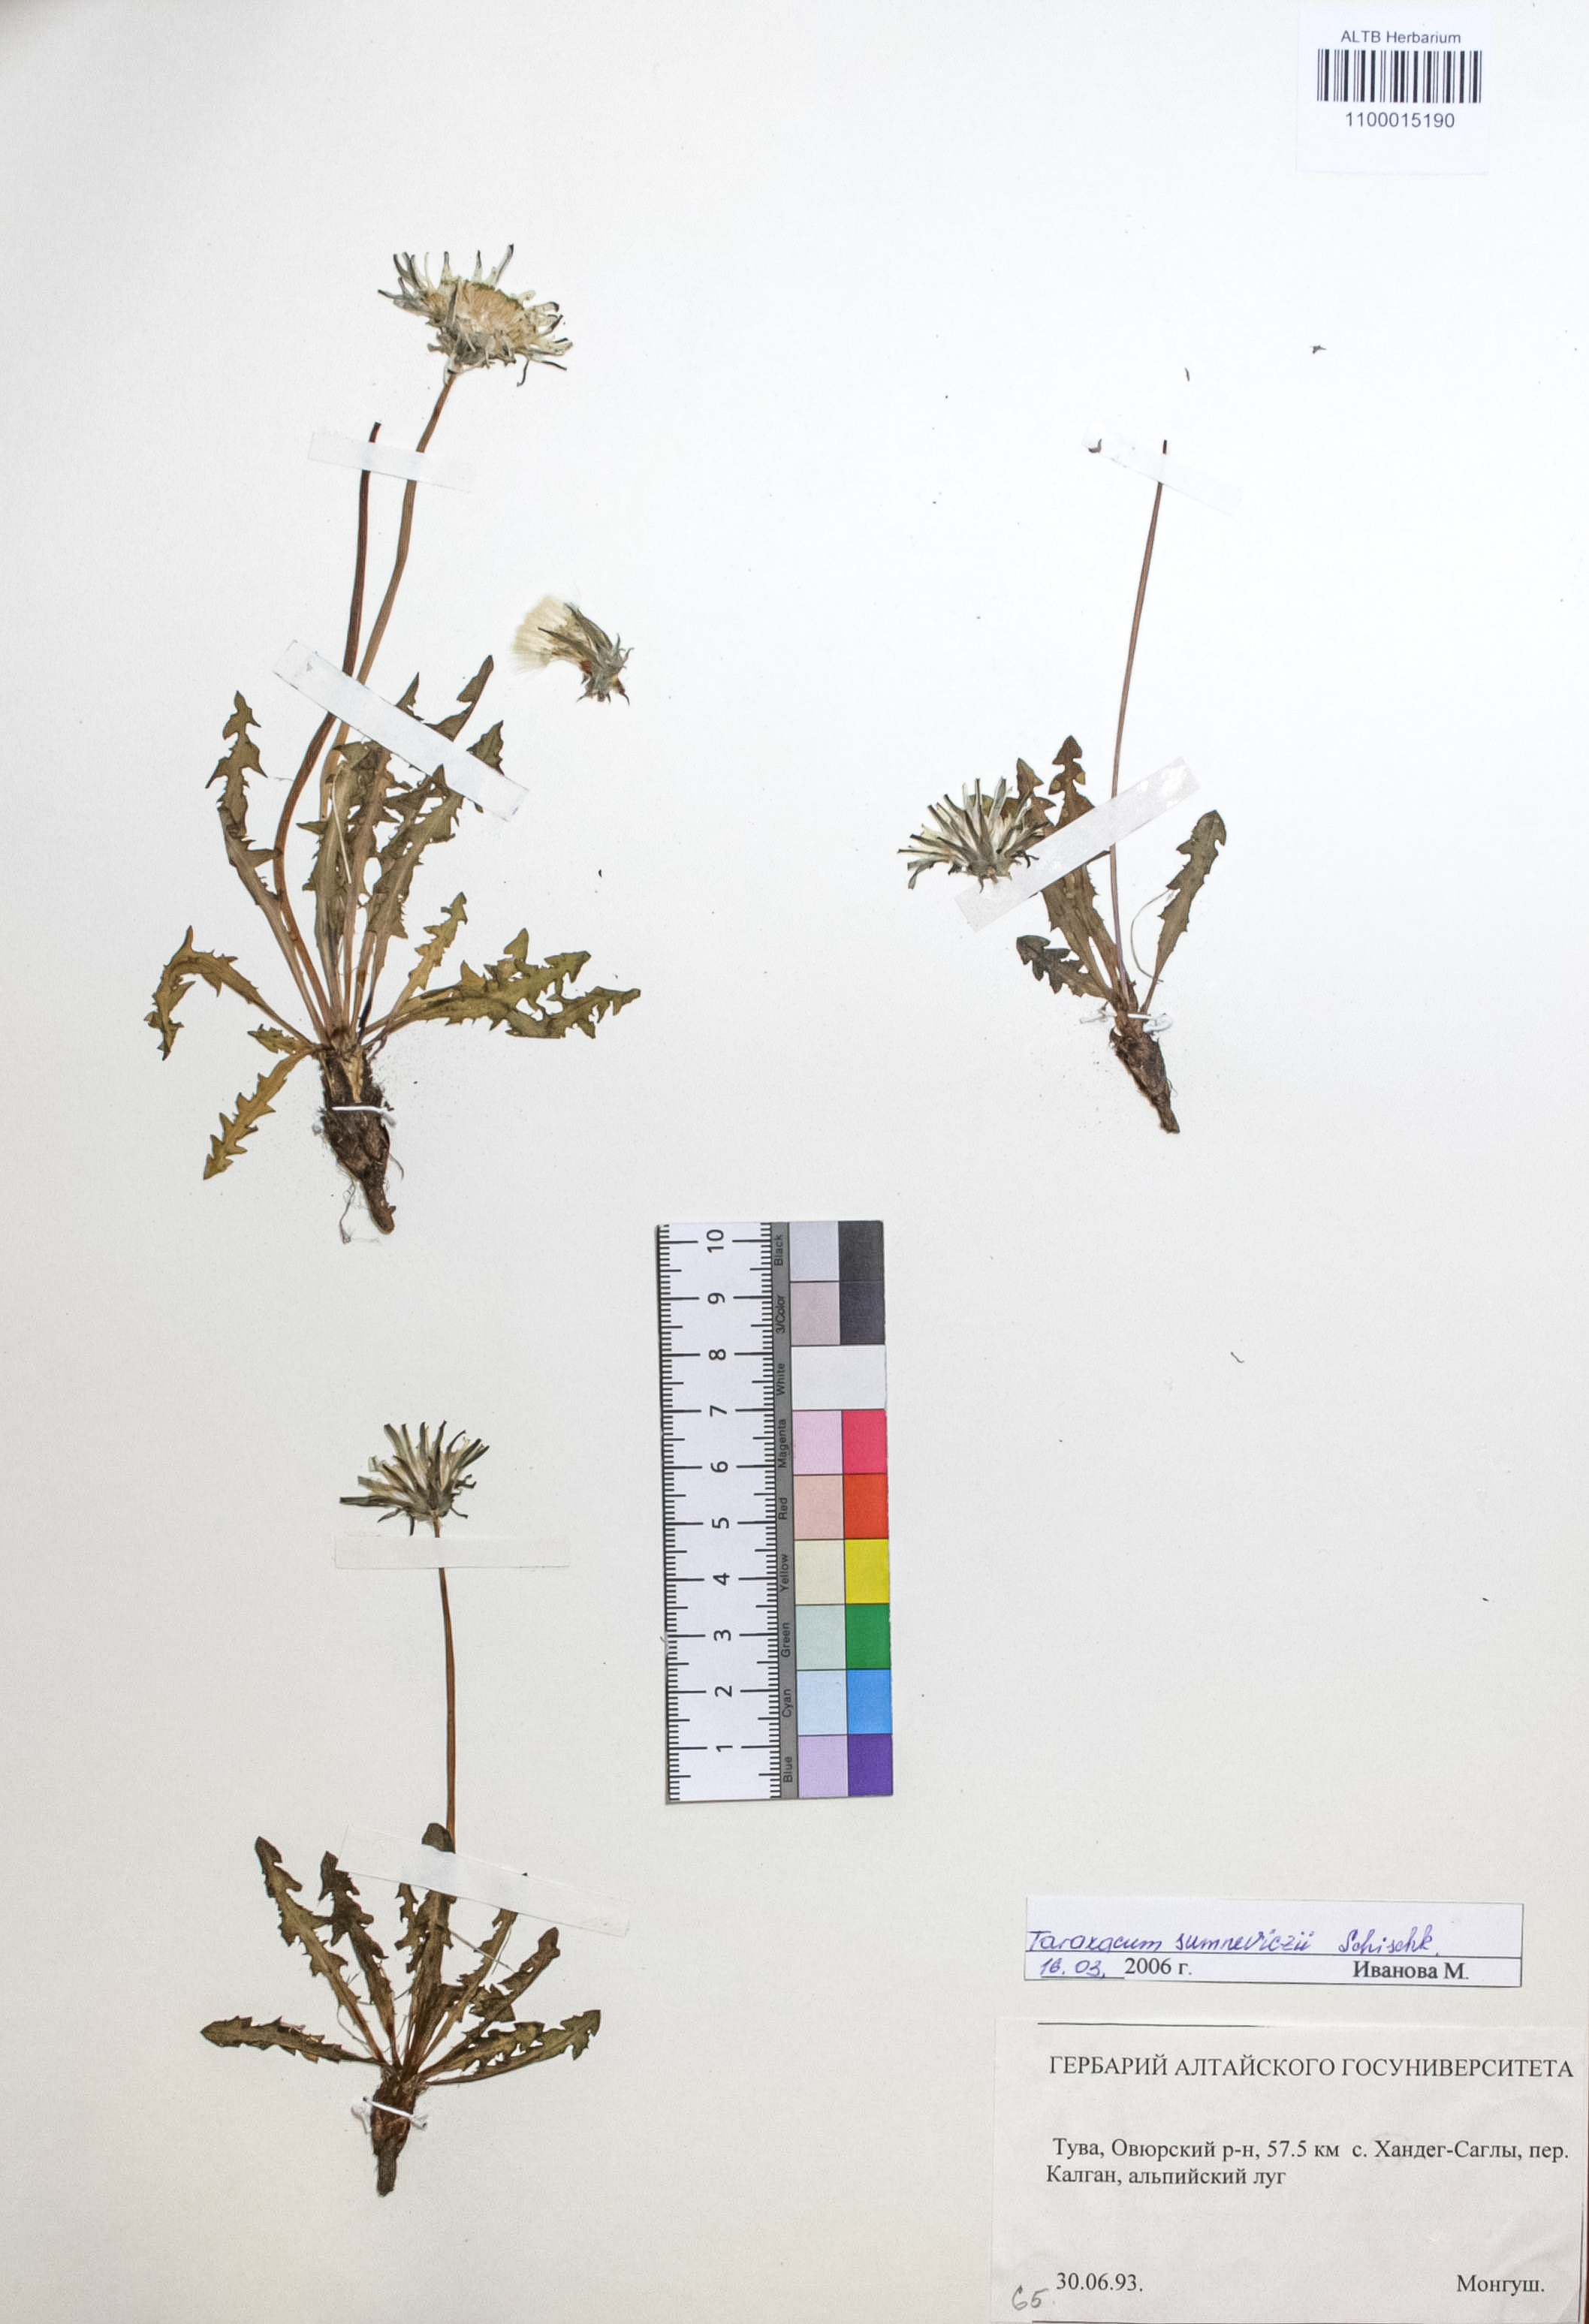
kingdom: Plantae
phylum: Tracheophyta
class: Magnoliopsida
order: Asterales
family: Asteraceae
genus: Taraxacum
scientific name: Taraxacum sumneviczii
